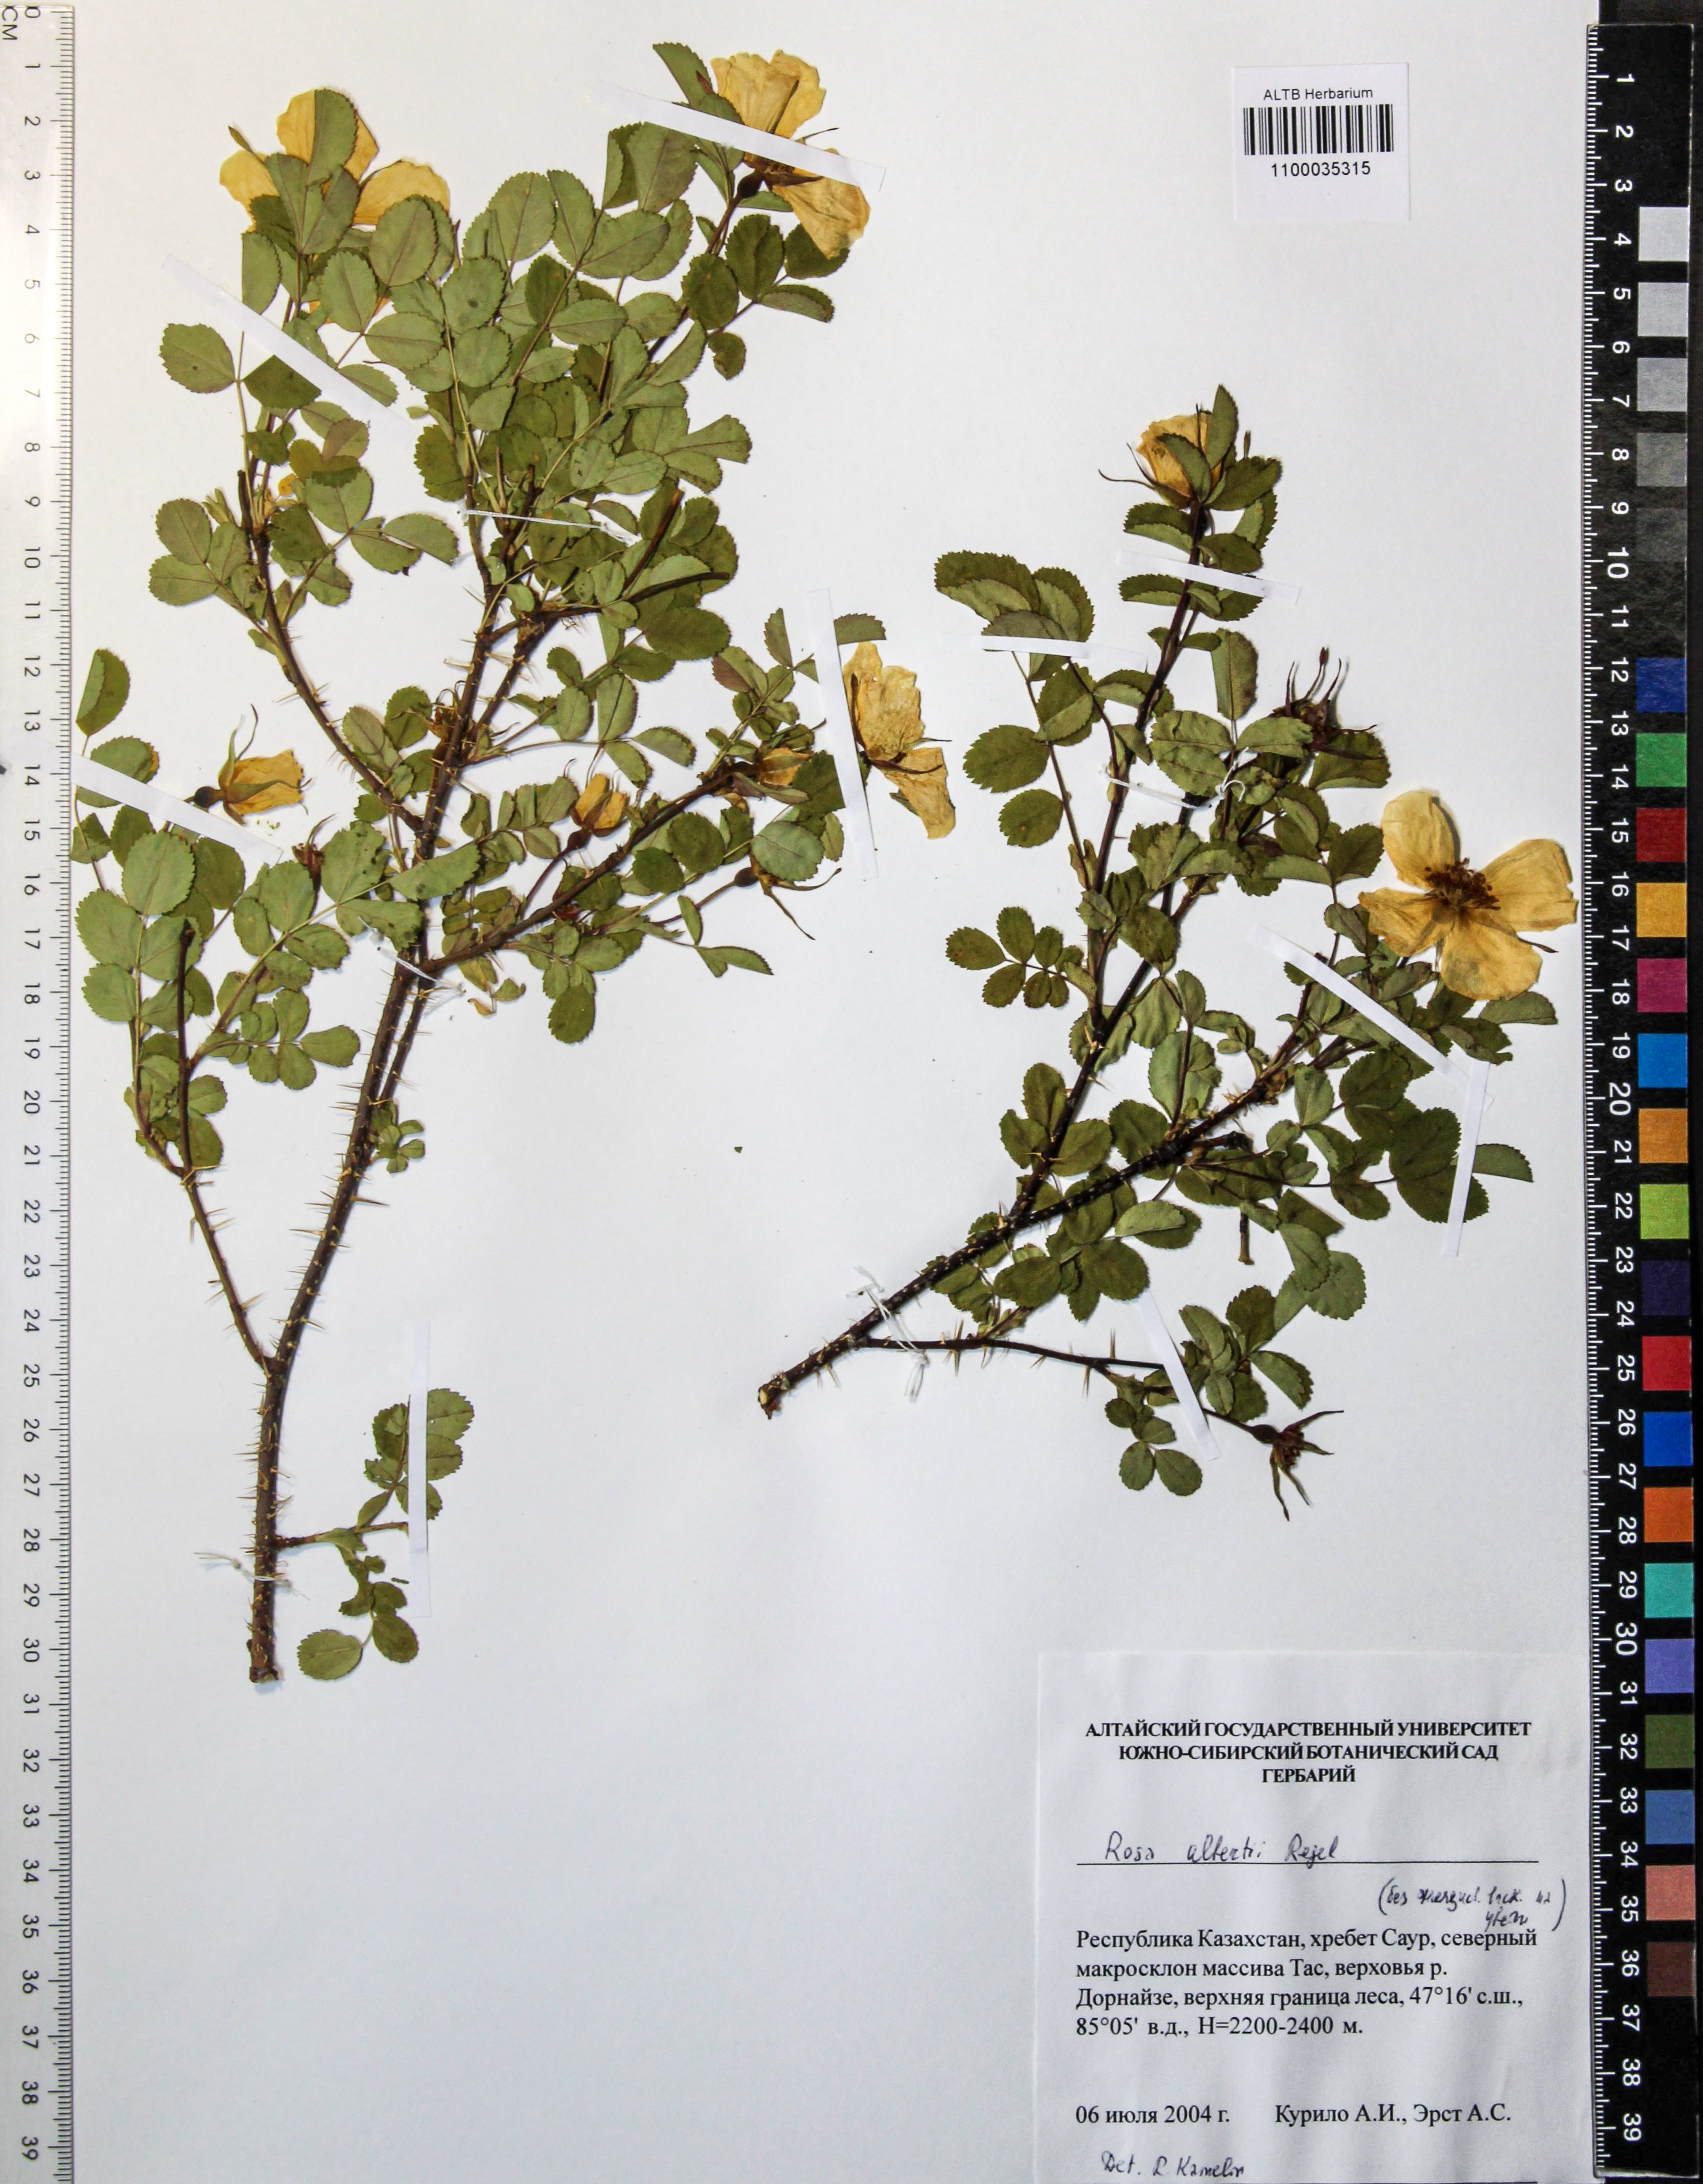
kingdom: Plantae
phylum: Tracheophyta
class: Magnoliopsida
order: Rosales
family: Rosaceae
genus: Rosa
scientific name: Rosa alberti
